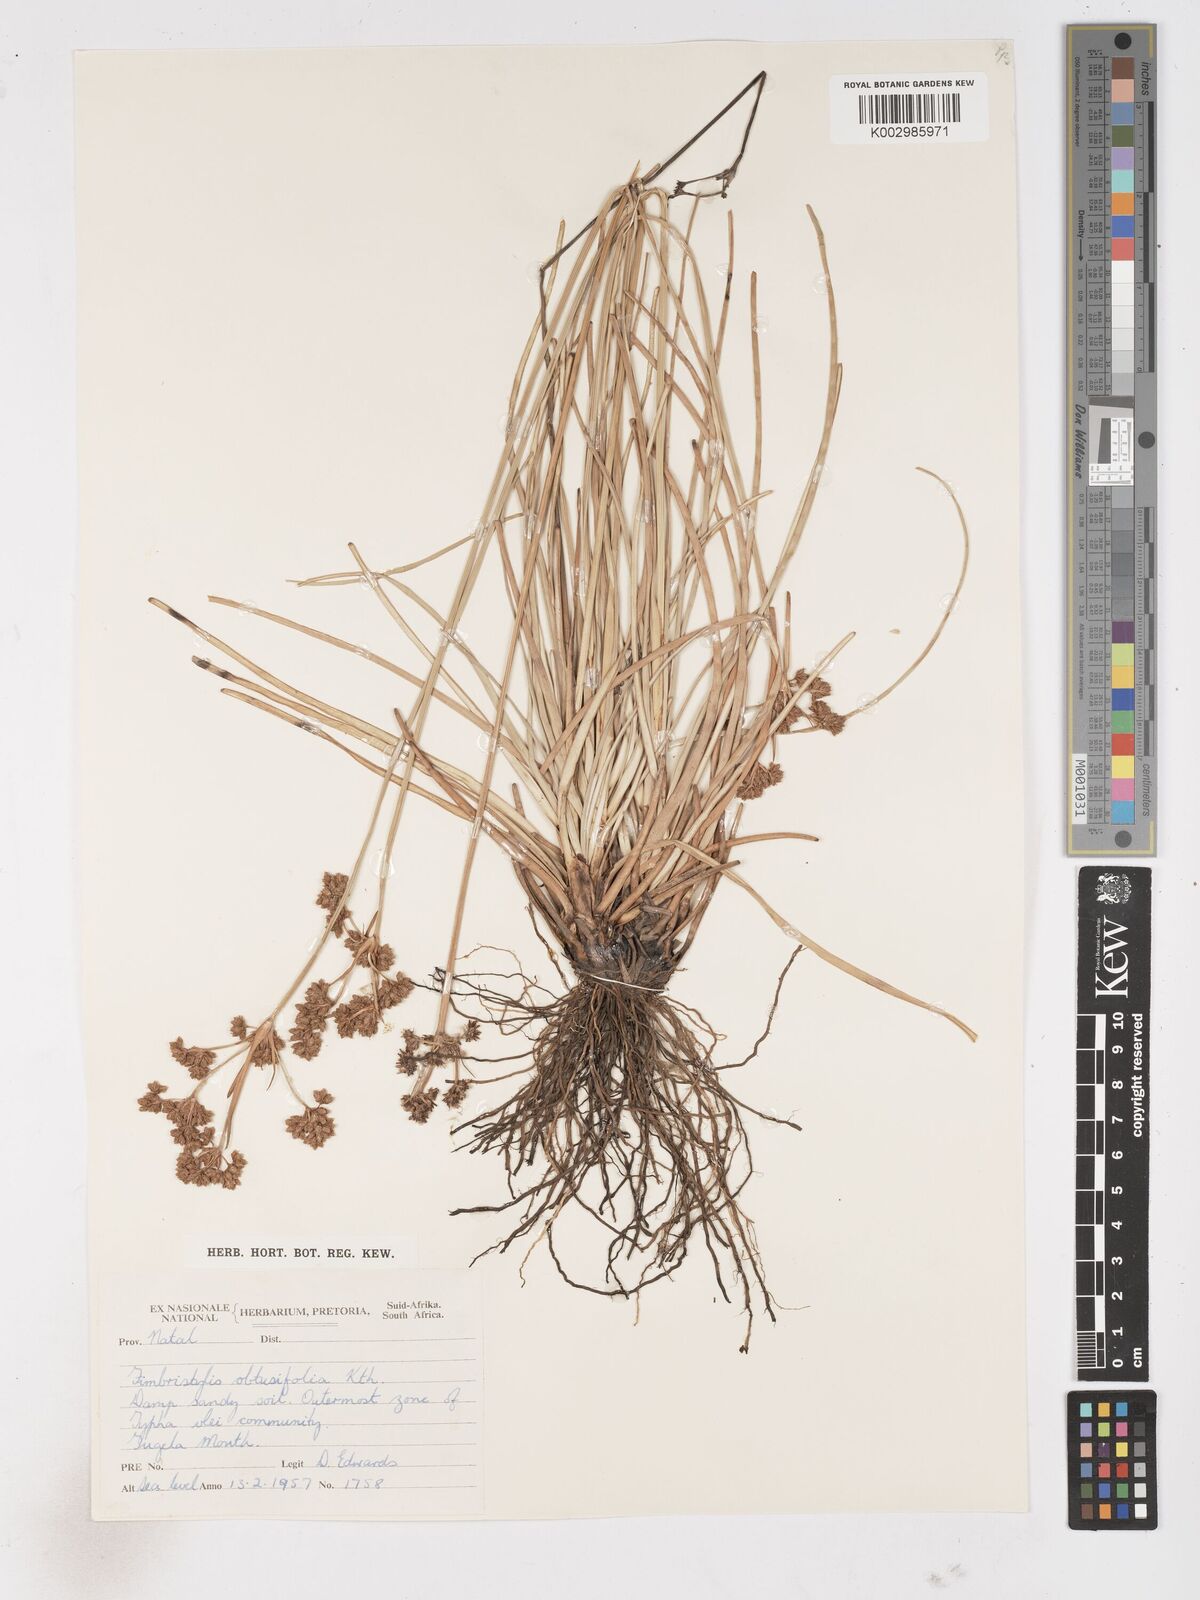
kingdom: Plantae
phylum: Tracheophyta
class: Liliopsida
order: Poales
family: Cyperaceae
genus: Fimbristylis
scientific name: Fimbristylis cymosa
